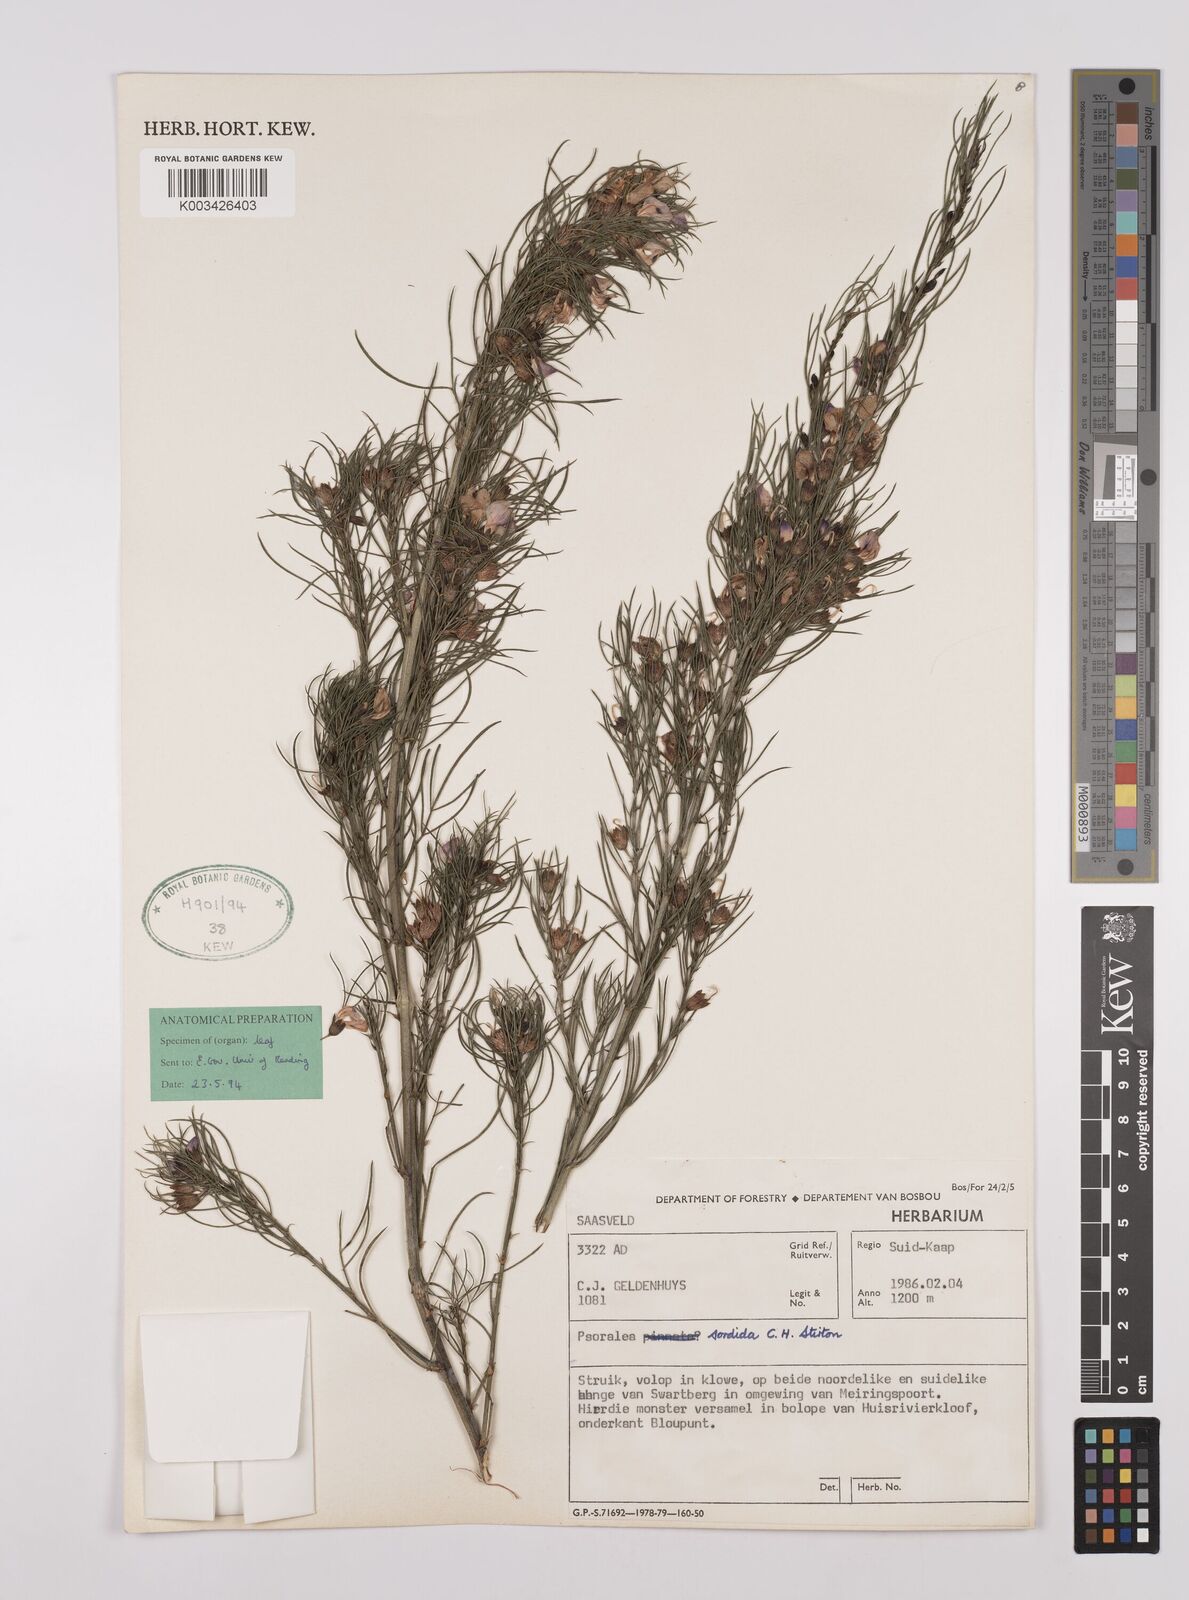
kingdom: Plantae
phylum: Tracheophyta
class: Magnoliopsida
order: Fabales
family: Fabaceae
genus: Psoralea
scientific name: Psoralea sordida
